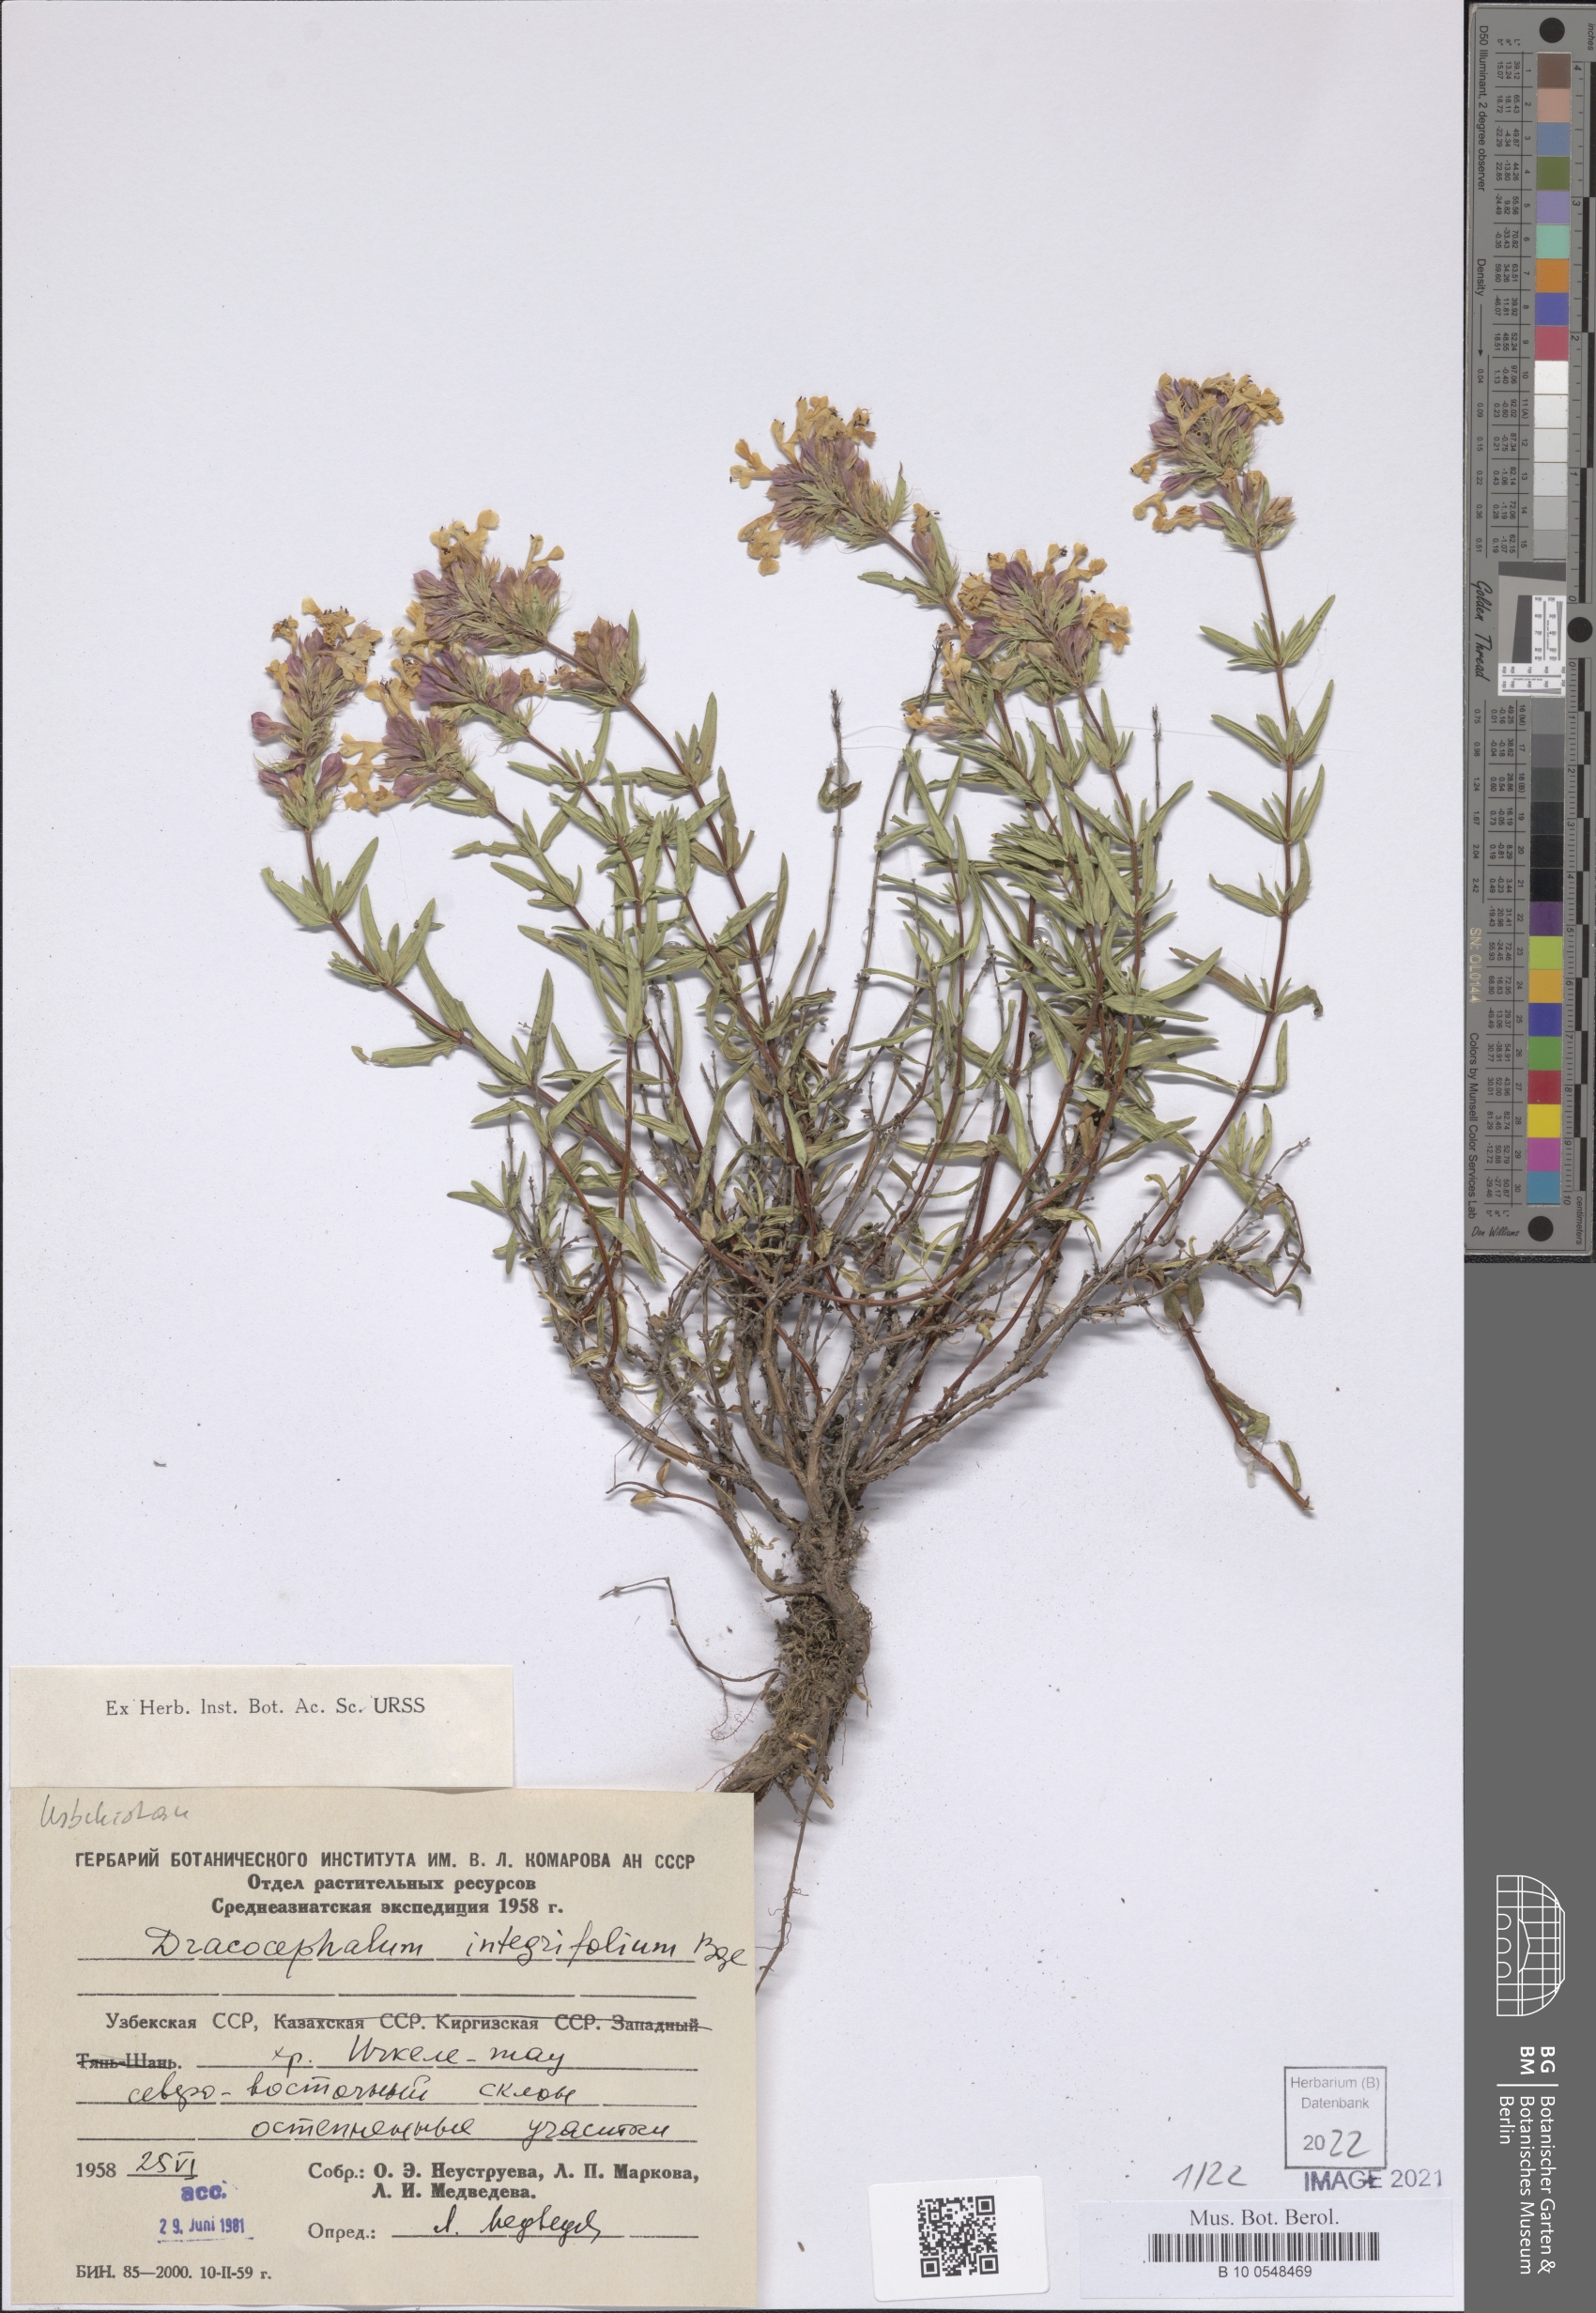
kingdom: Plantae
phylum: Tracheophyta
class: Magnoliopsida
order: Lamiales
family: Lamiaceae
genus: Dracocephalum
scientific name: Dracocephalum integrifolium
